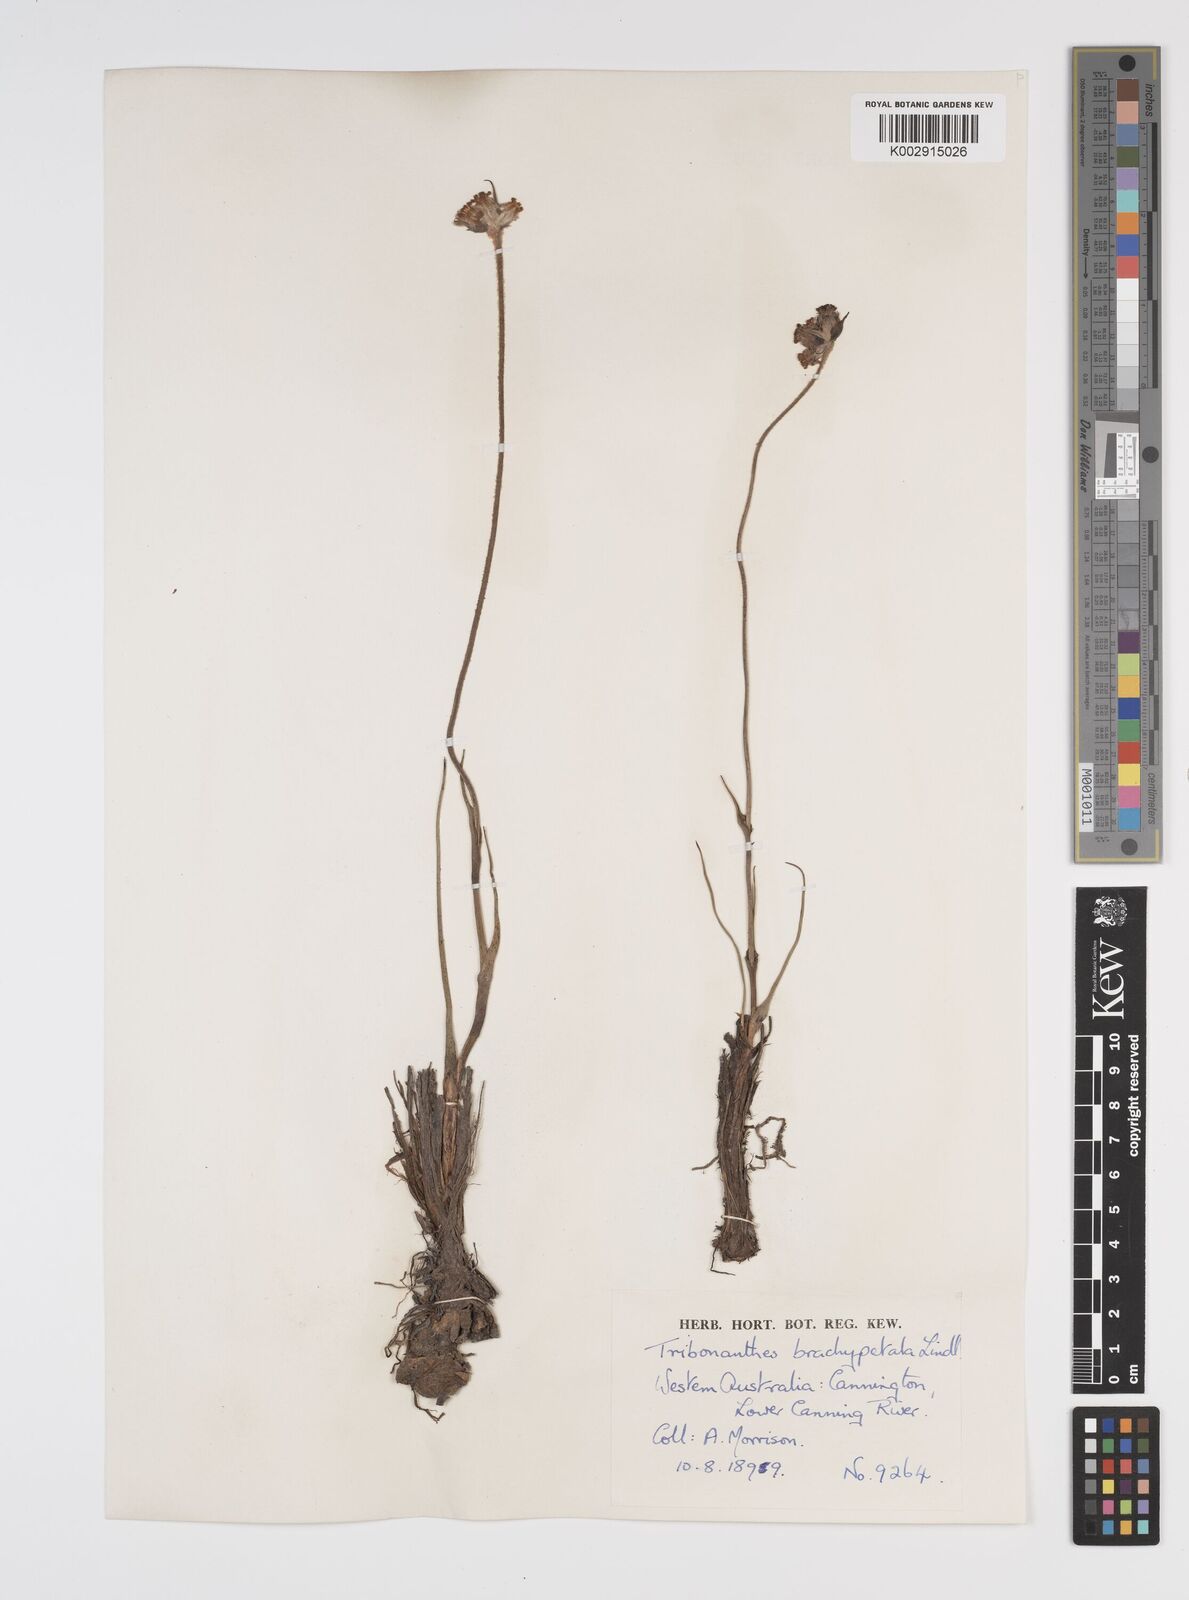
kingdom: Plantae
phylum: Tracheophyta
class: Liliopsida
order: Commelinales
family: Haemodoraceae
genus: Tribonanthes
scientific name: Tribonanthes brachypetala
